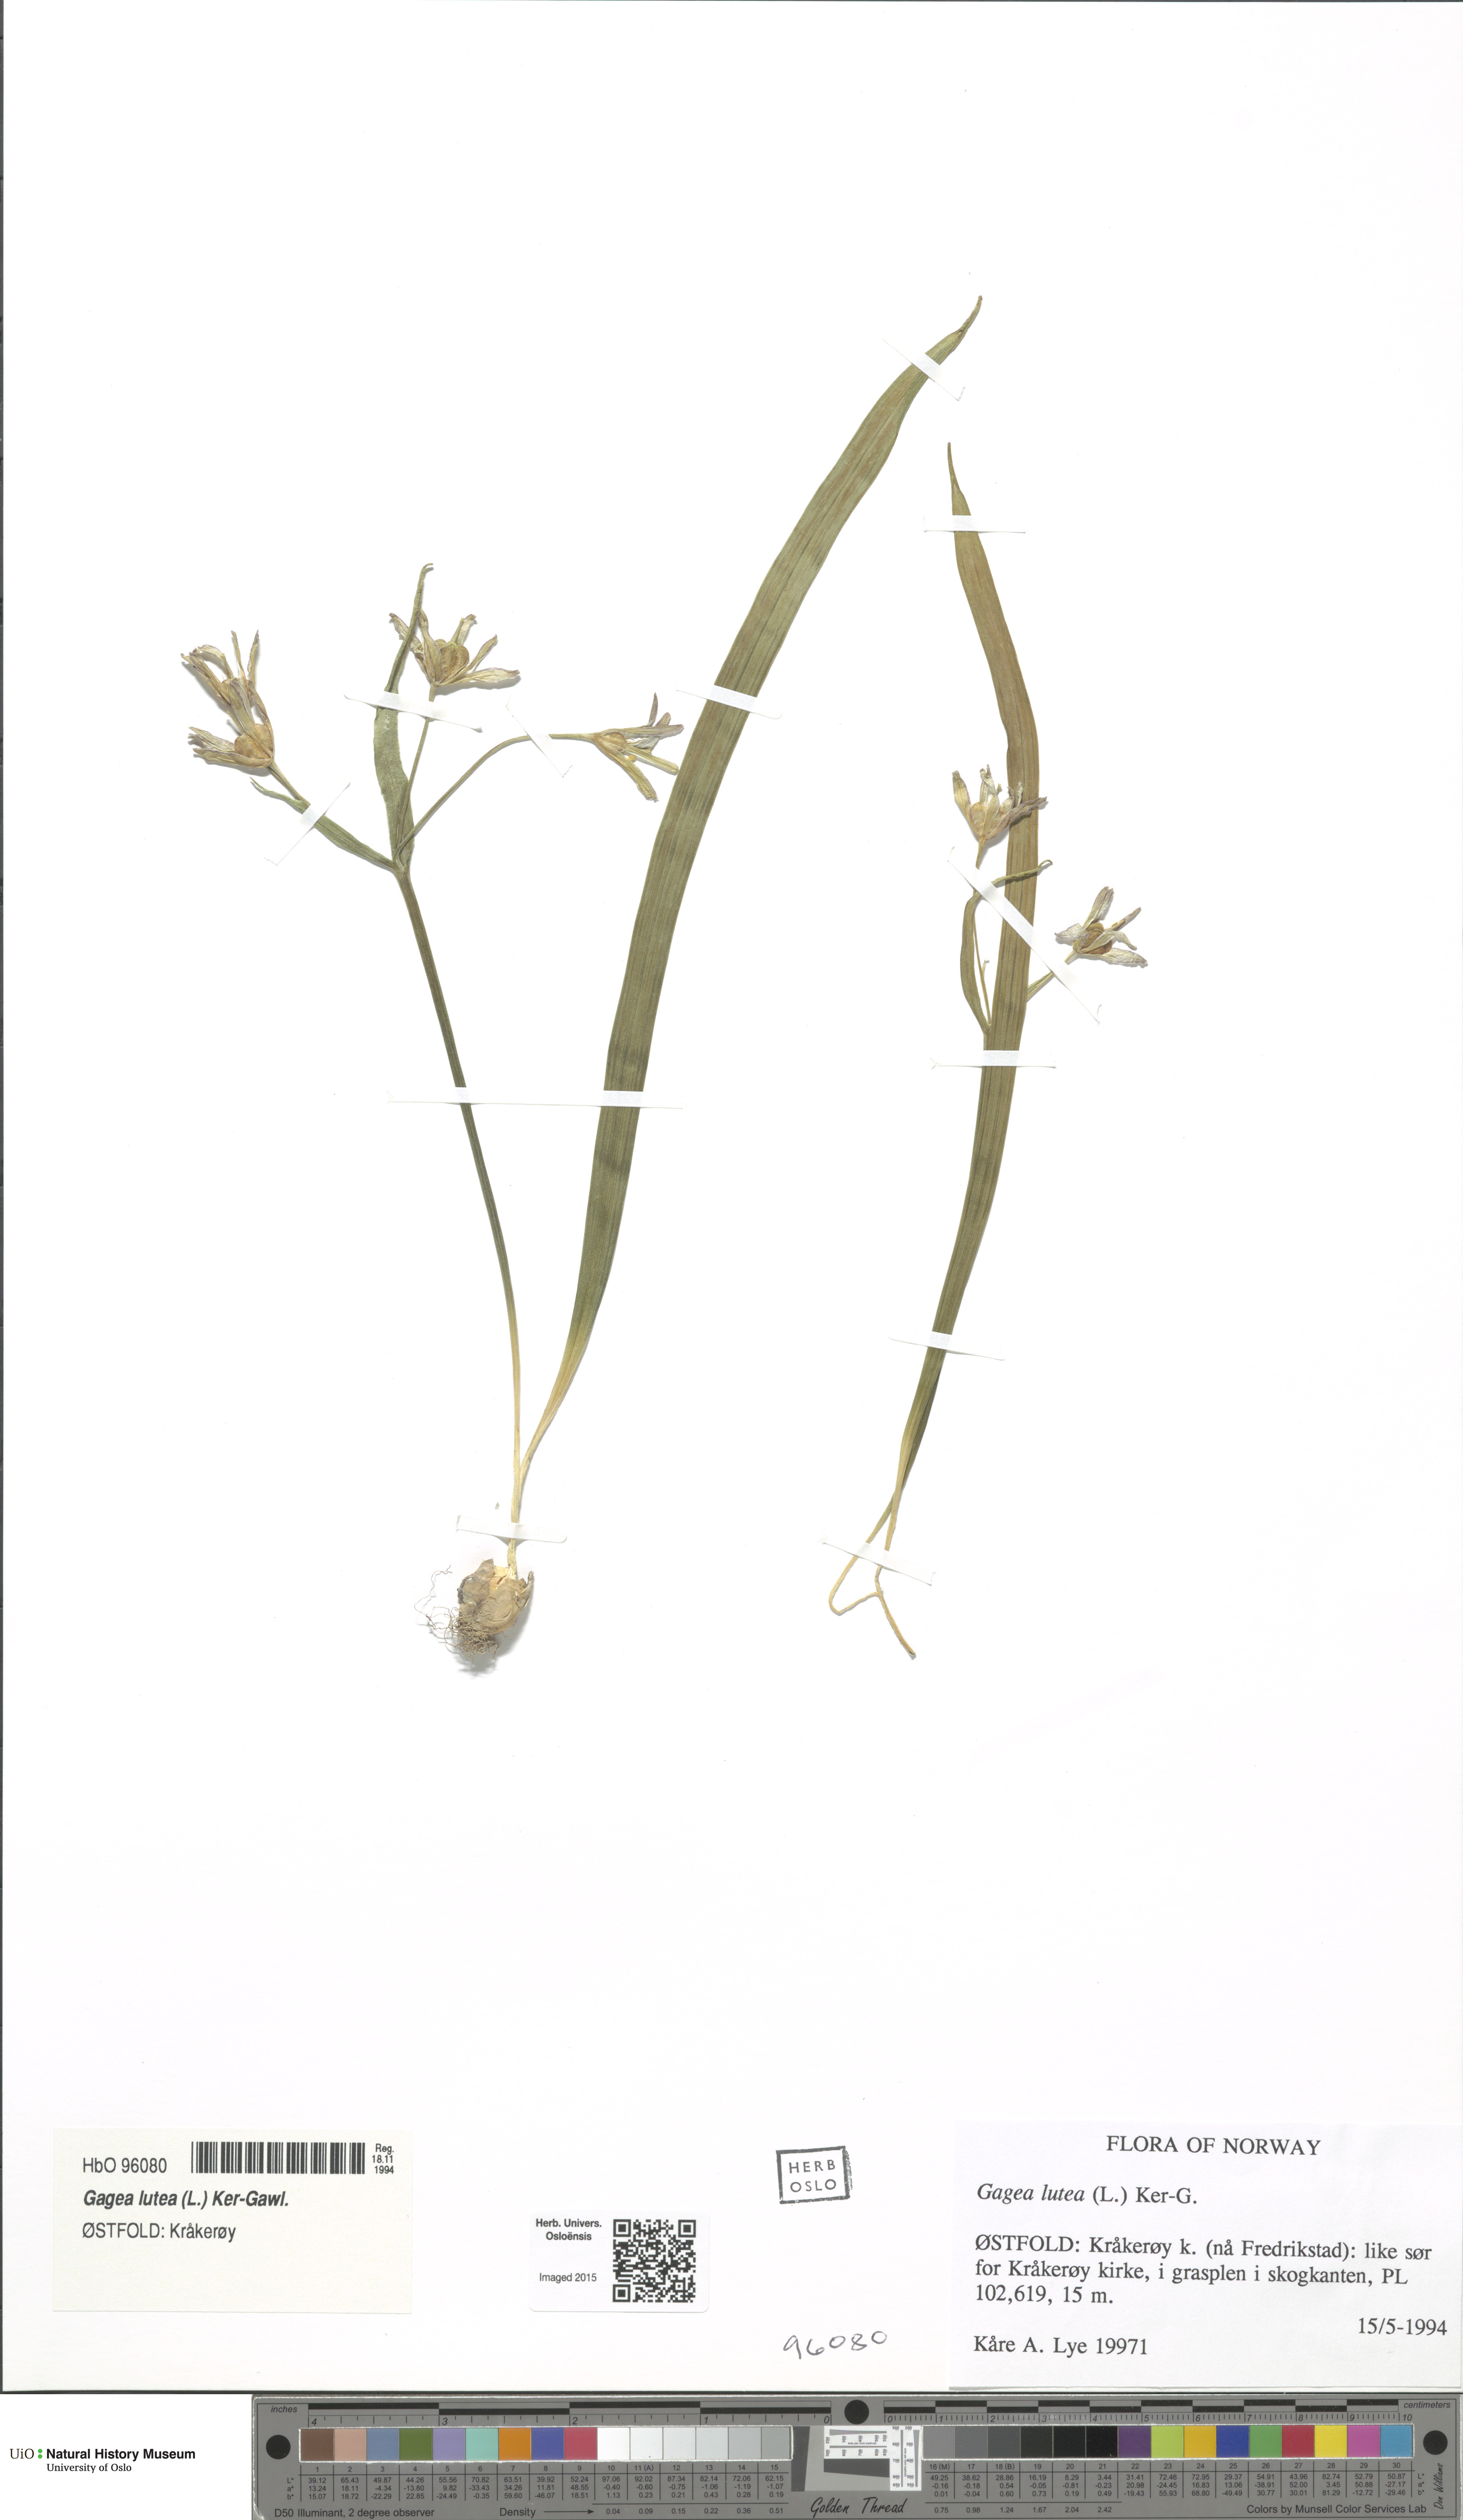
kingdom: Plantae
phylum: Tracheophyta
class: Liliopsida
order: Liliales
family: Liliaceae
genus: Gagea
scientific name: Gagea lutea
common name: Yellow star-of-bethlehem
